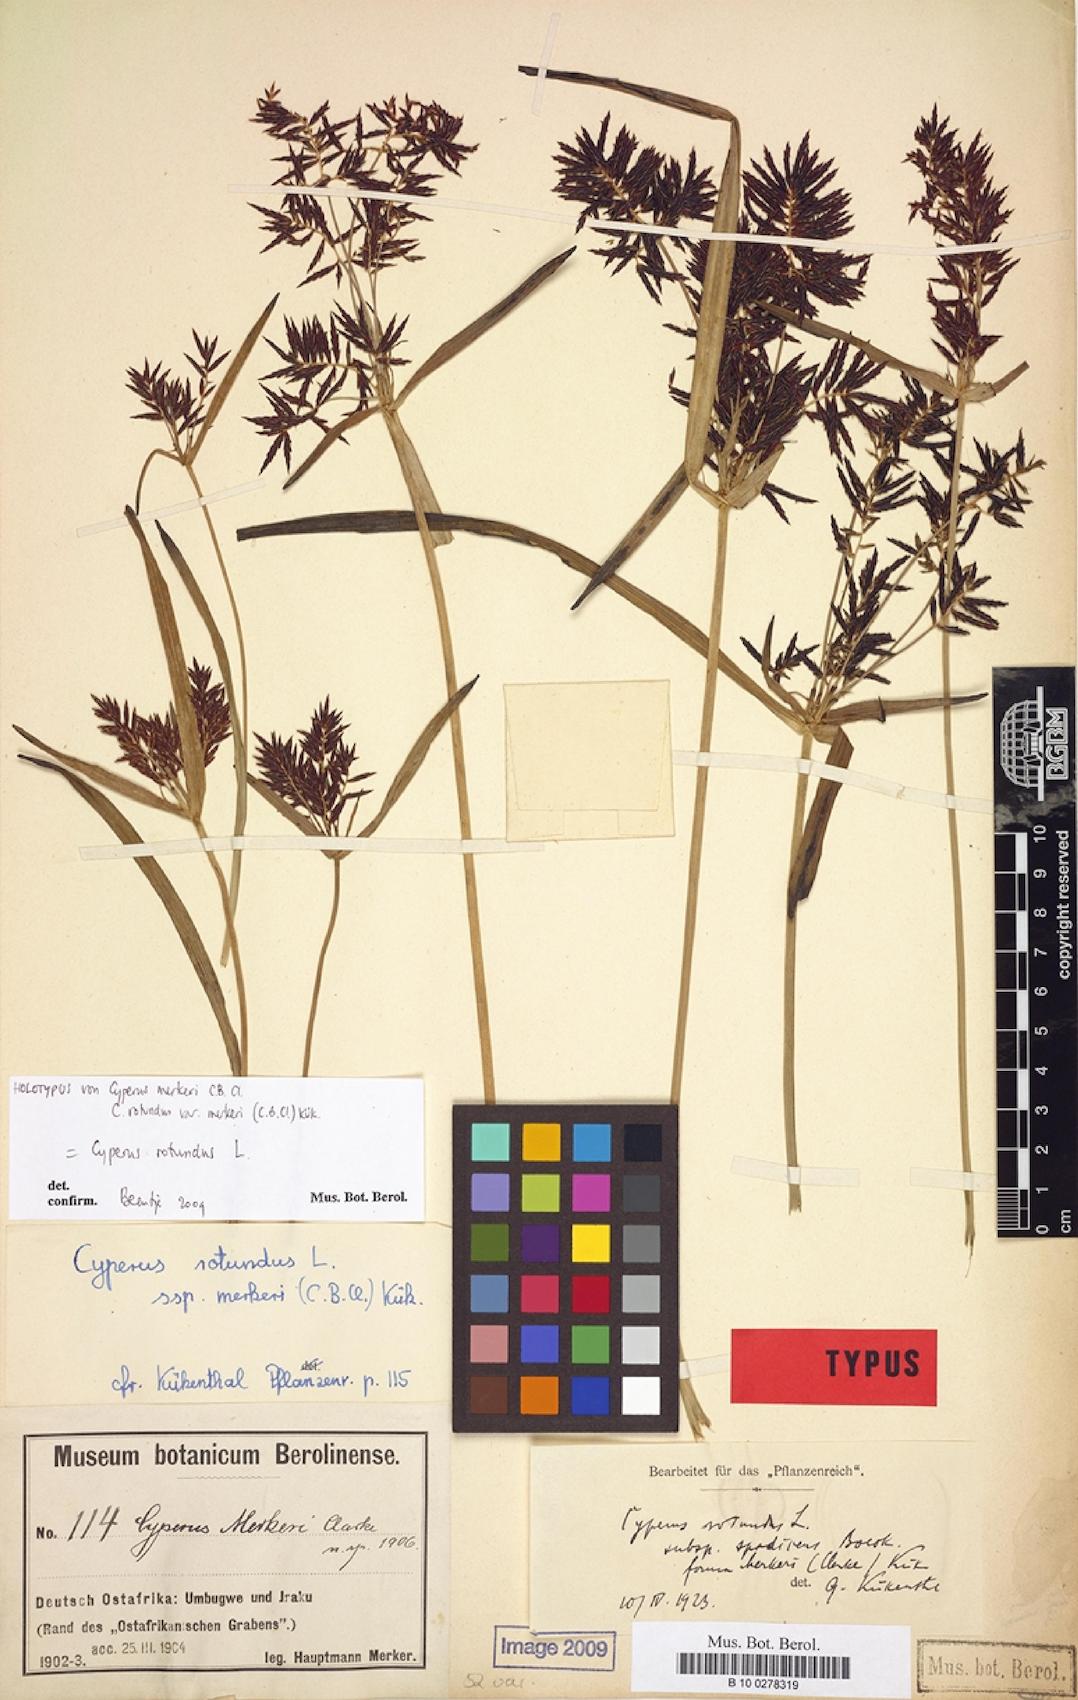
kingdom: Plantae
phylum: Tracheophyta
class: Liliopsida
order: Poales
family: Cyperaceae
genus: Cyperus
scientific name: Cyperus rotundus
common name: Nutgrass
